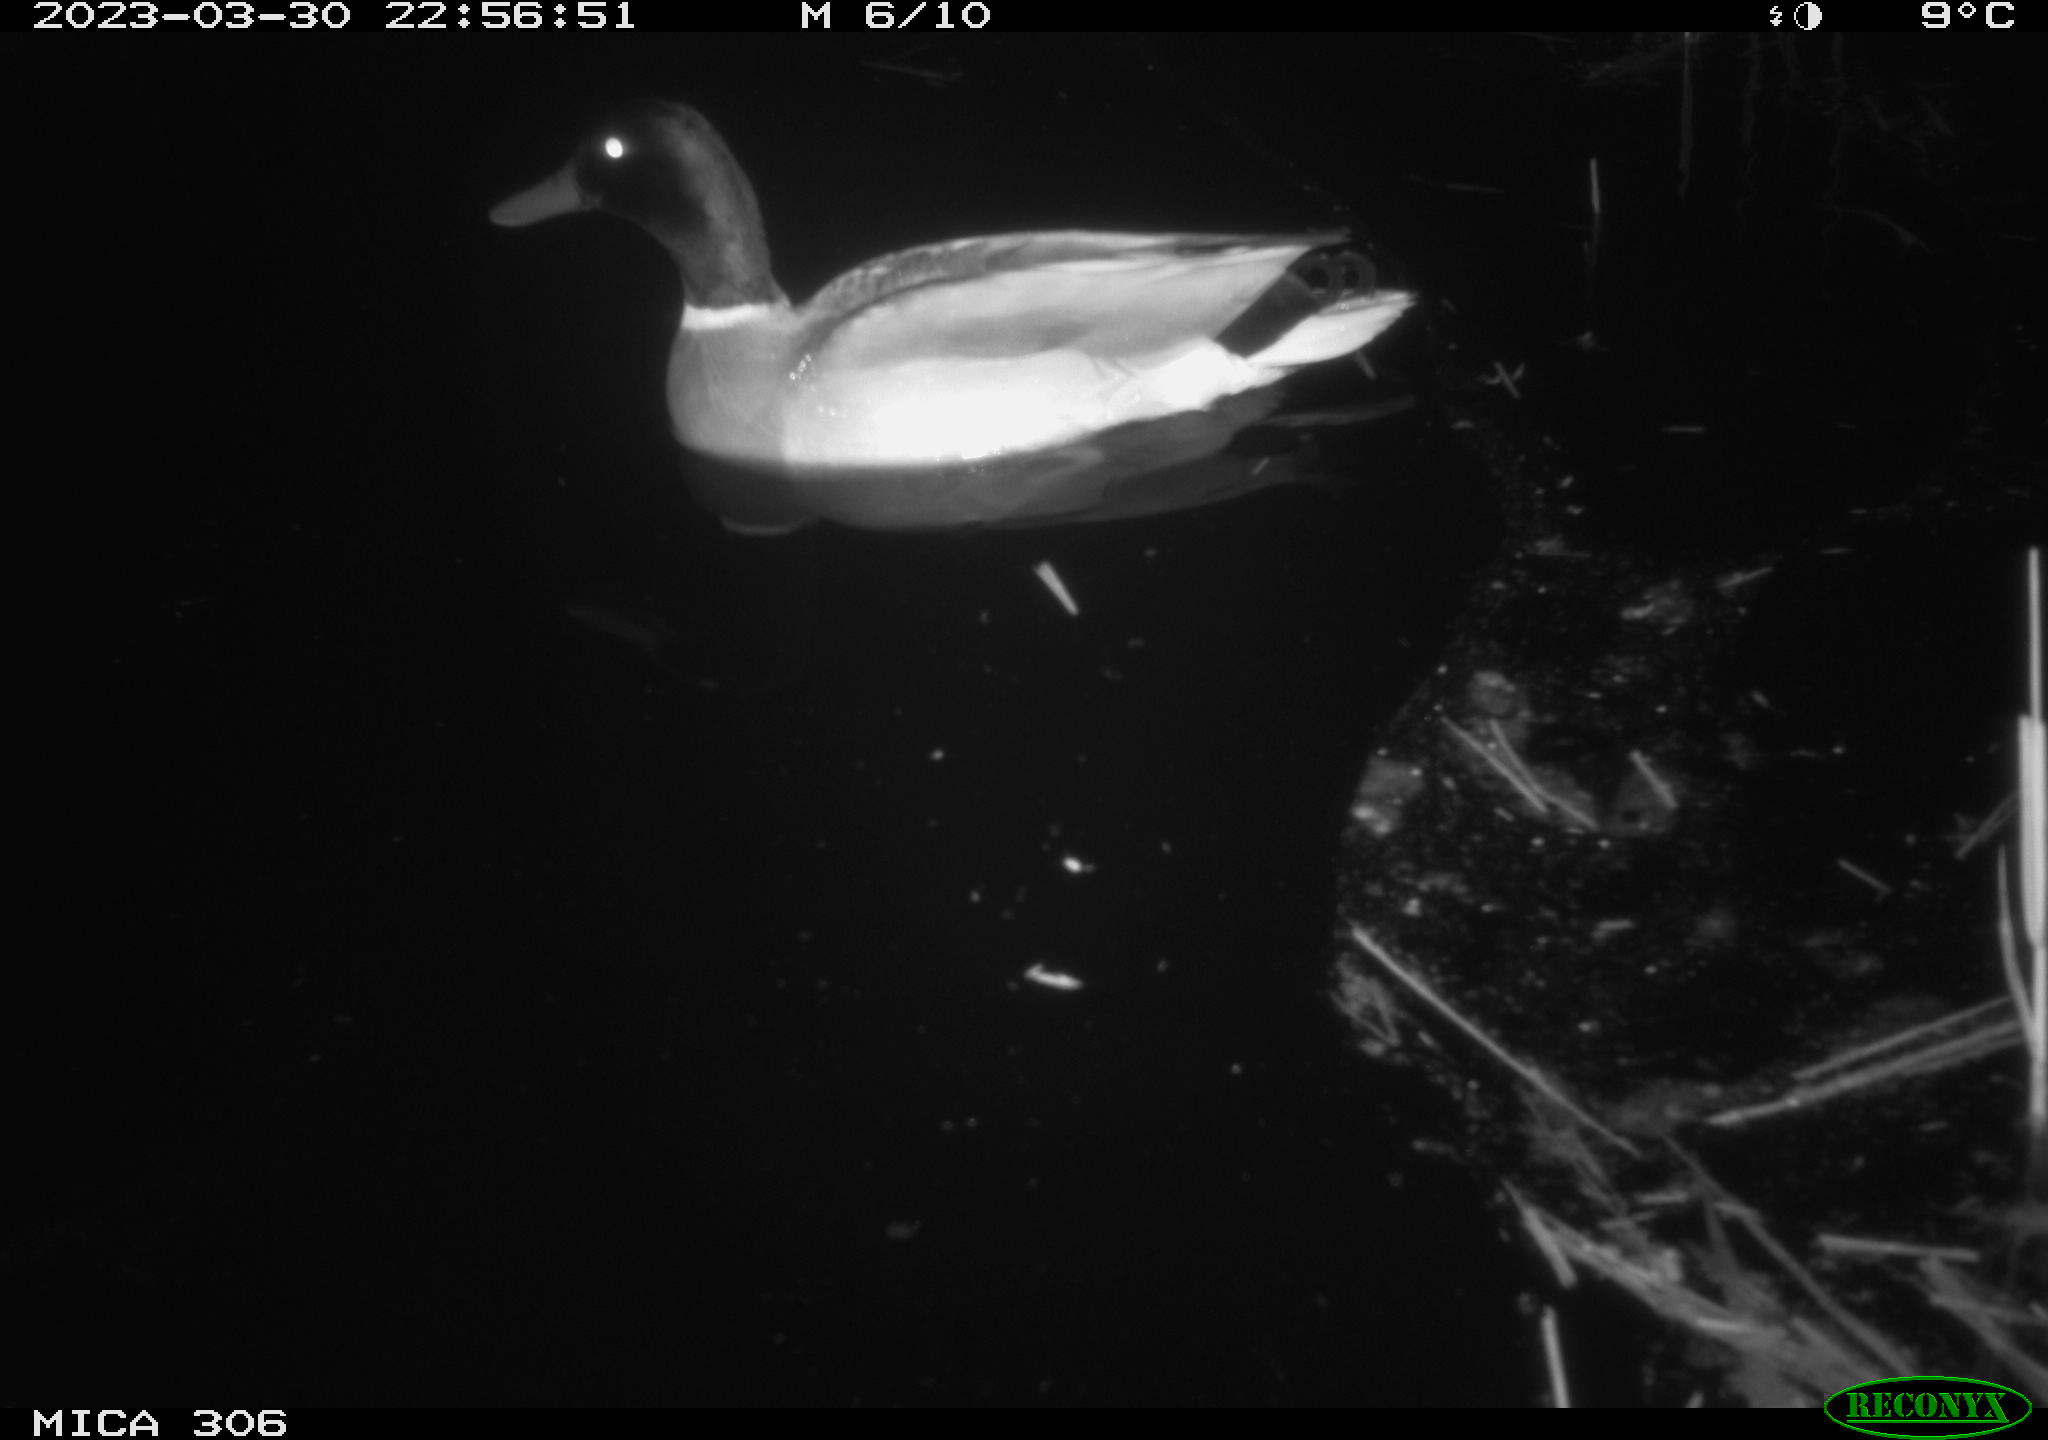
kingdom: Animalia
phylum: Chordata
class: Aves
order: Anseriformes
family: Anatidae
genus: Anas
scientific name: Anas
